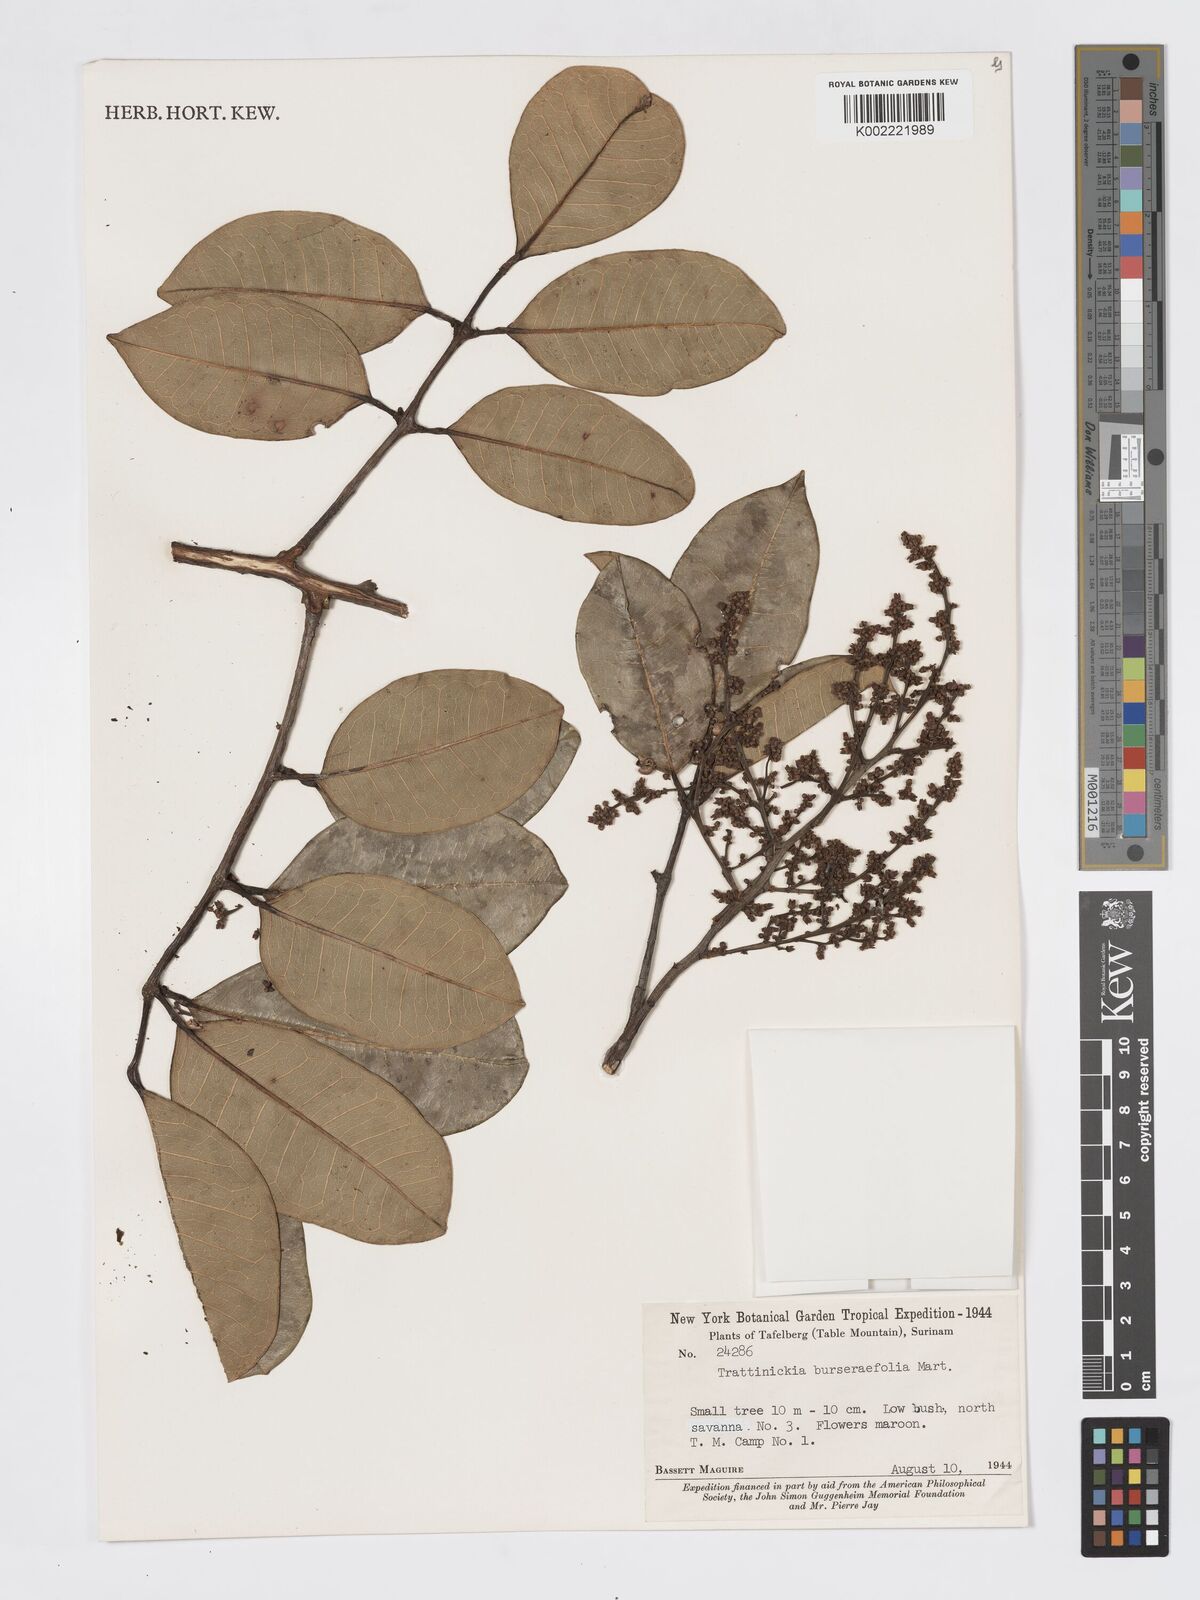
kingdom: Plantae
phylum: Tracheophyta
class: Magnoliopsida
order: Sapindales
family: Burseraceae
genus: Trattinnickia
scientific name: Trattinnickia burserifolia
